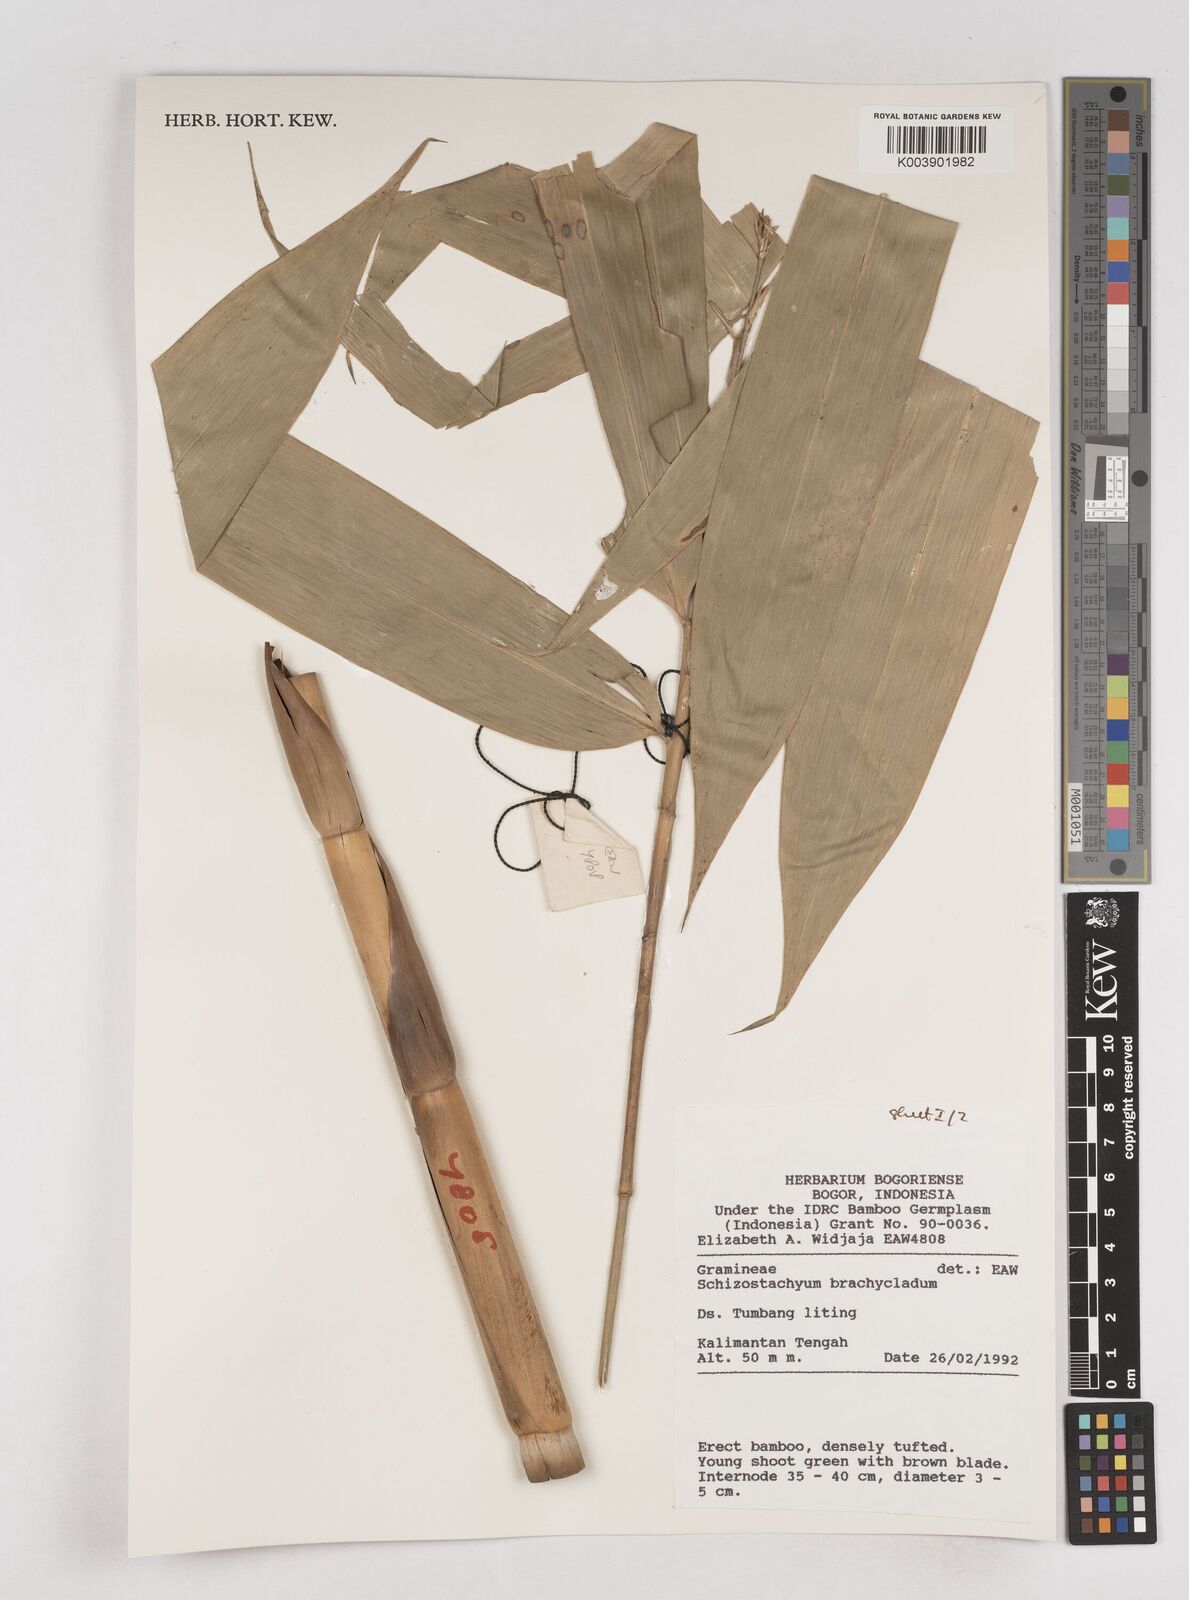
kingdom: Plantae
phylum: Tracheophyta
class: Liliopsida
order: Poales
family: Poaceae
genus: Schizostachyum
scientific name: Schizostachyum brachycladum
